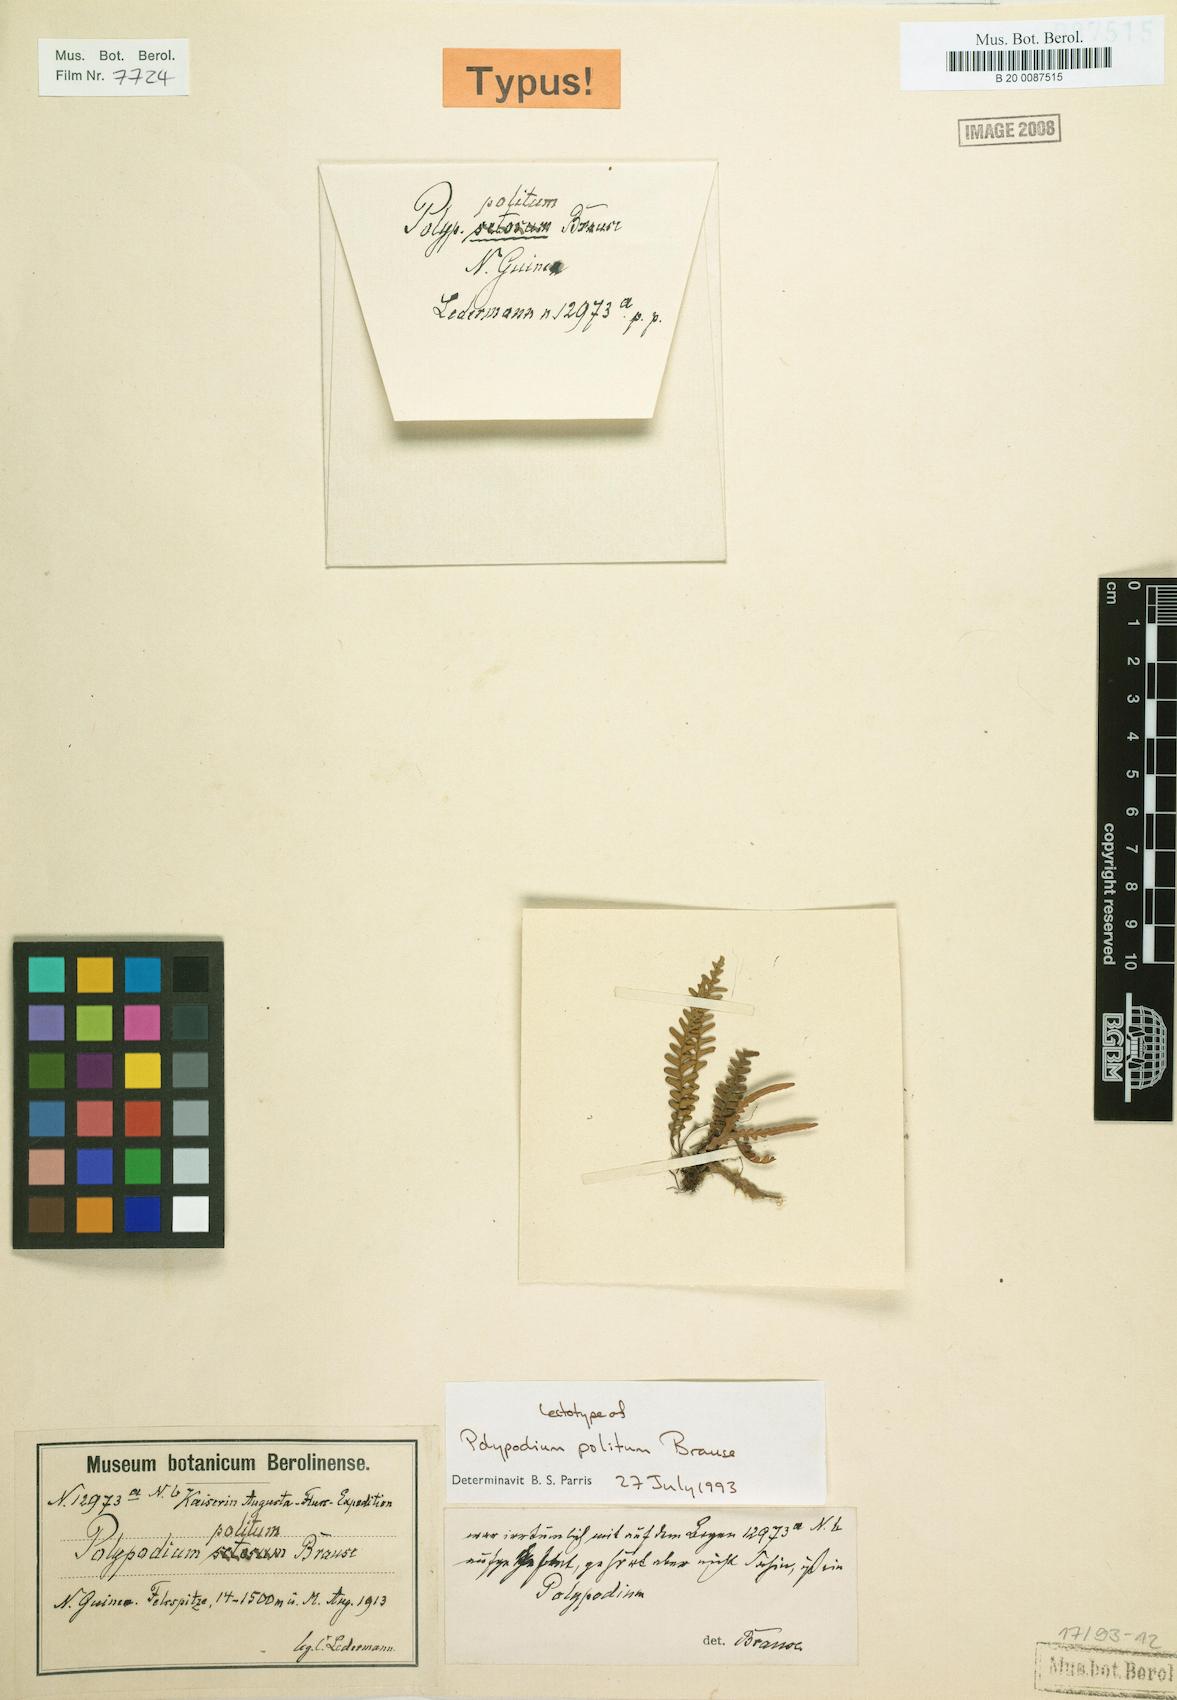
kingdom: Plantae
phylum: Tracheophyta
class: Polypodiopsida
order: Polypodiales
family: Polypodiaceae
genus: Oreogrammitis
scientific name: Oreogrammitis polita
